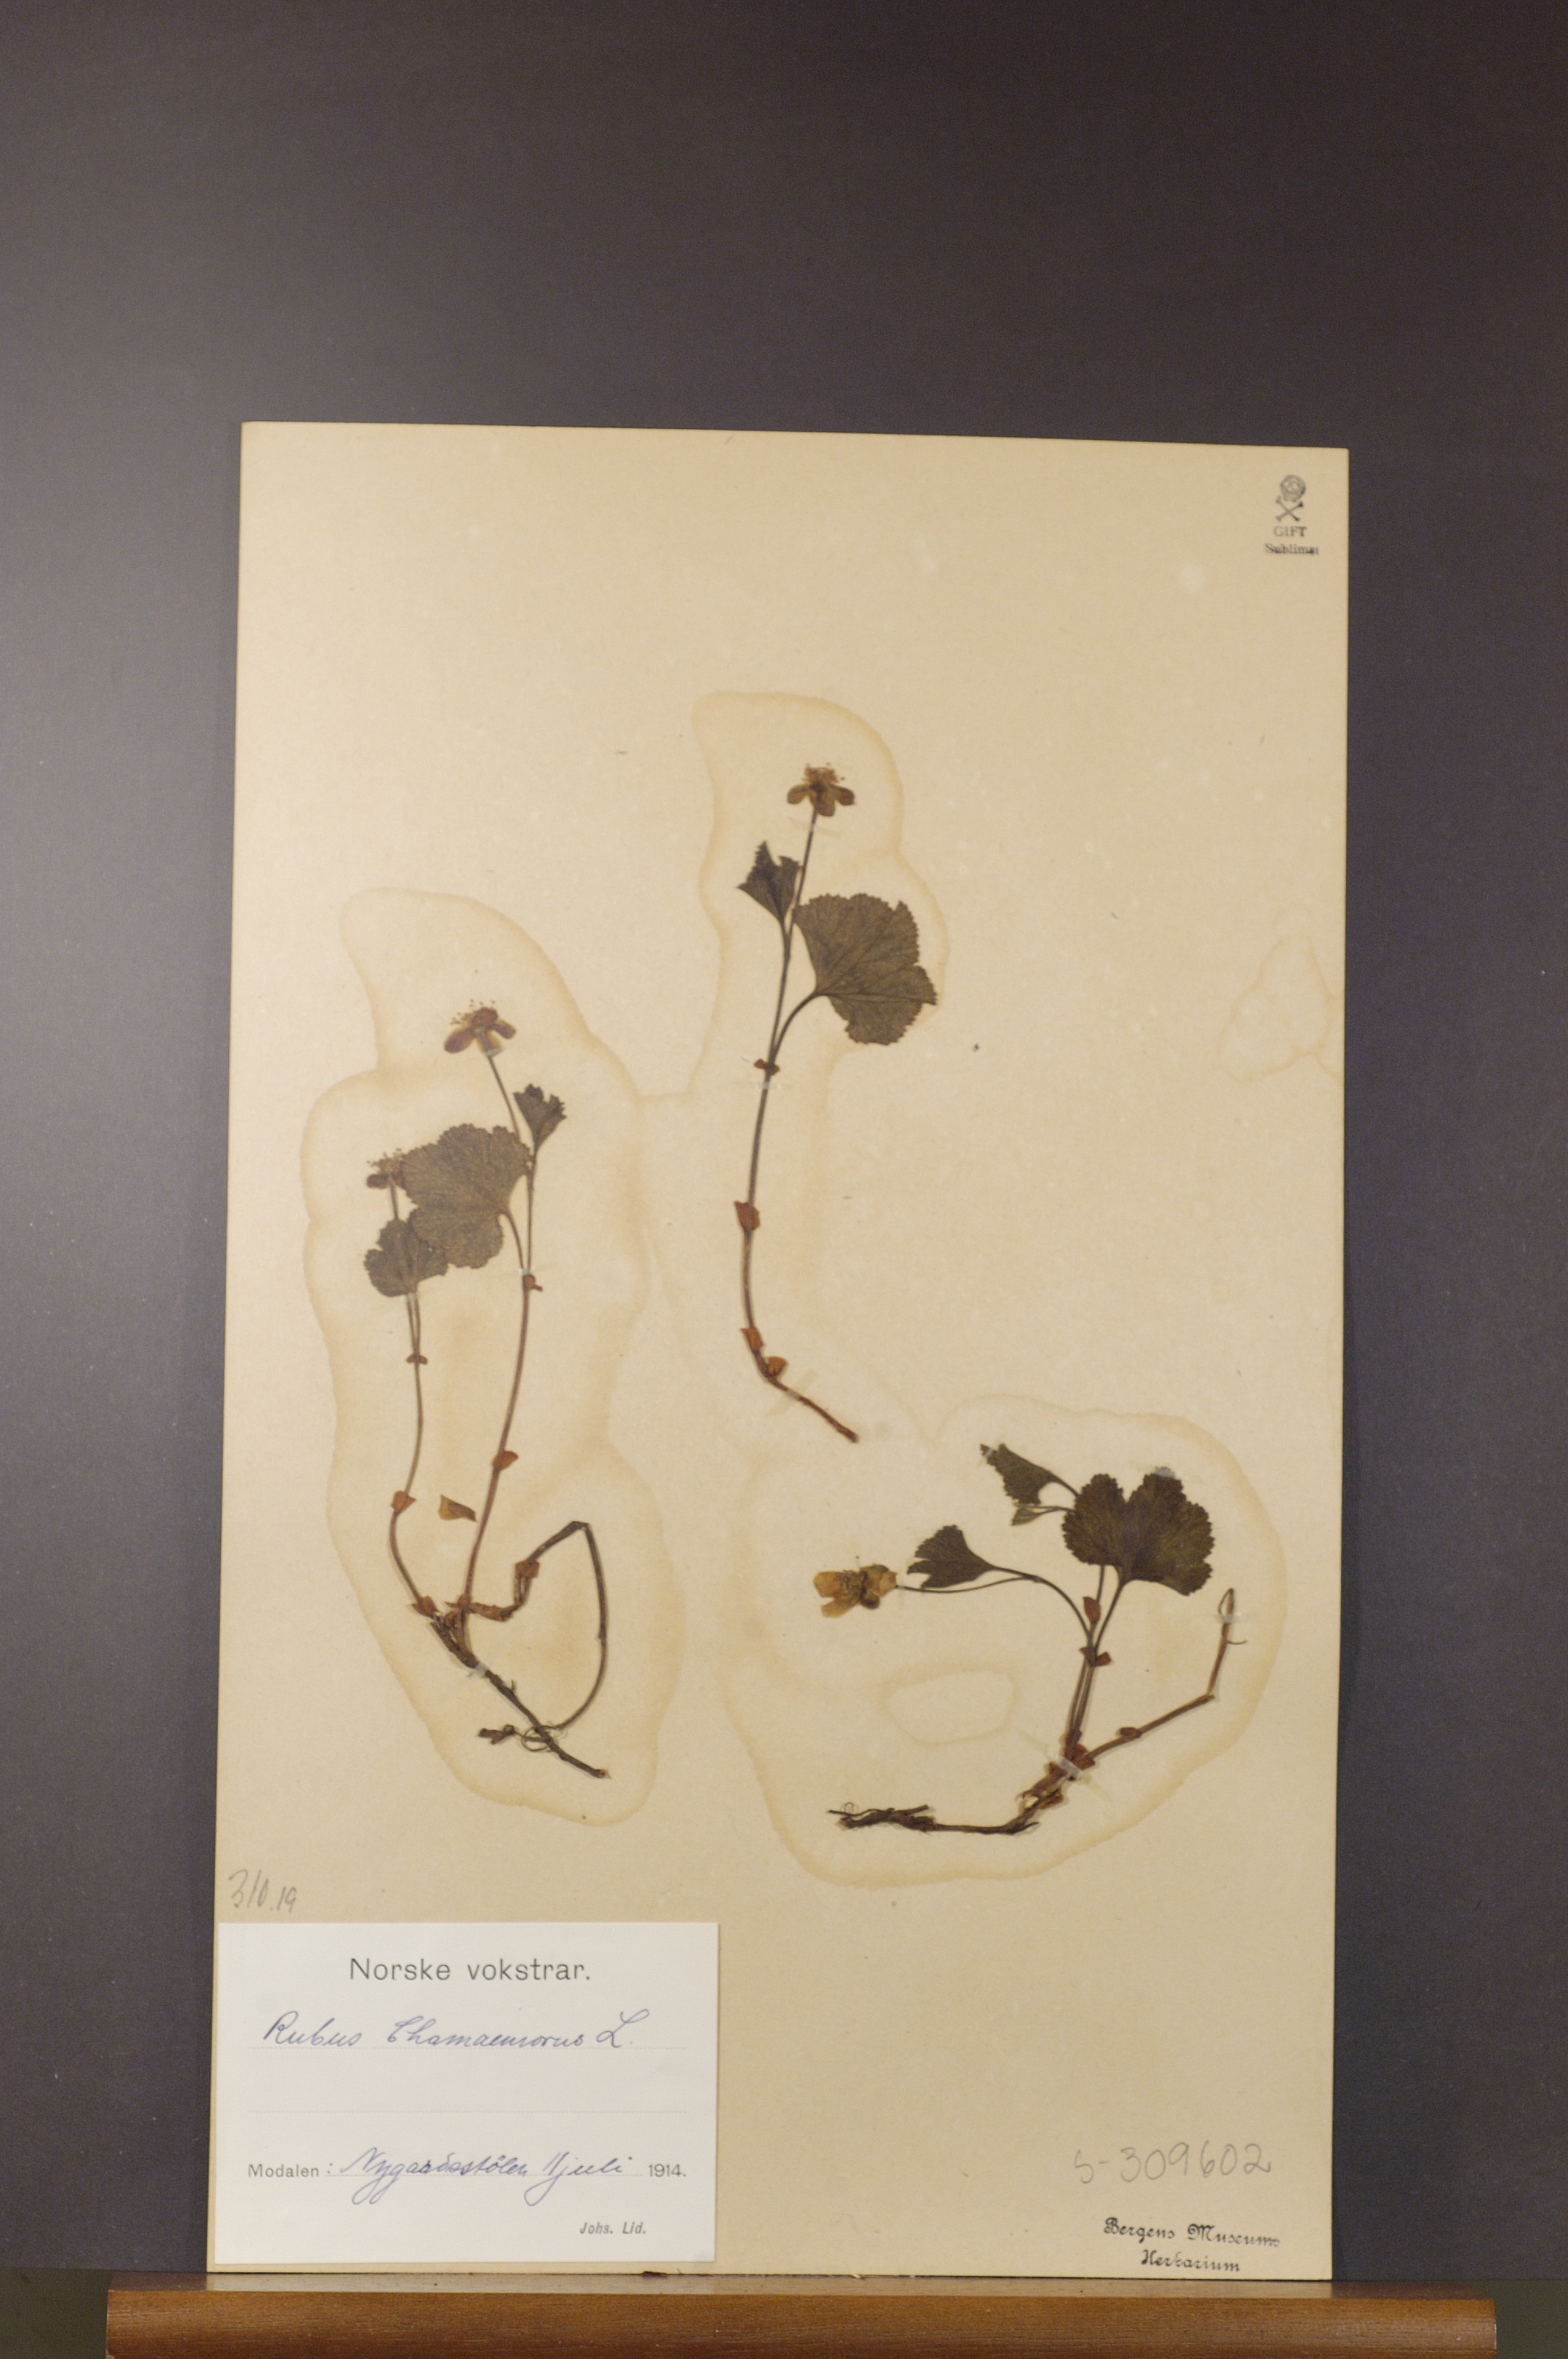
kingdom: Plantae
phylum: Tracheophyta
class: Magnoliopsida
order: Rosales
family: Rosaceae
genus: Rubus
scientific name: Rubus chamaemorus
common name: Cloudberry
